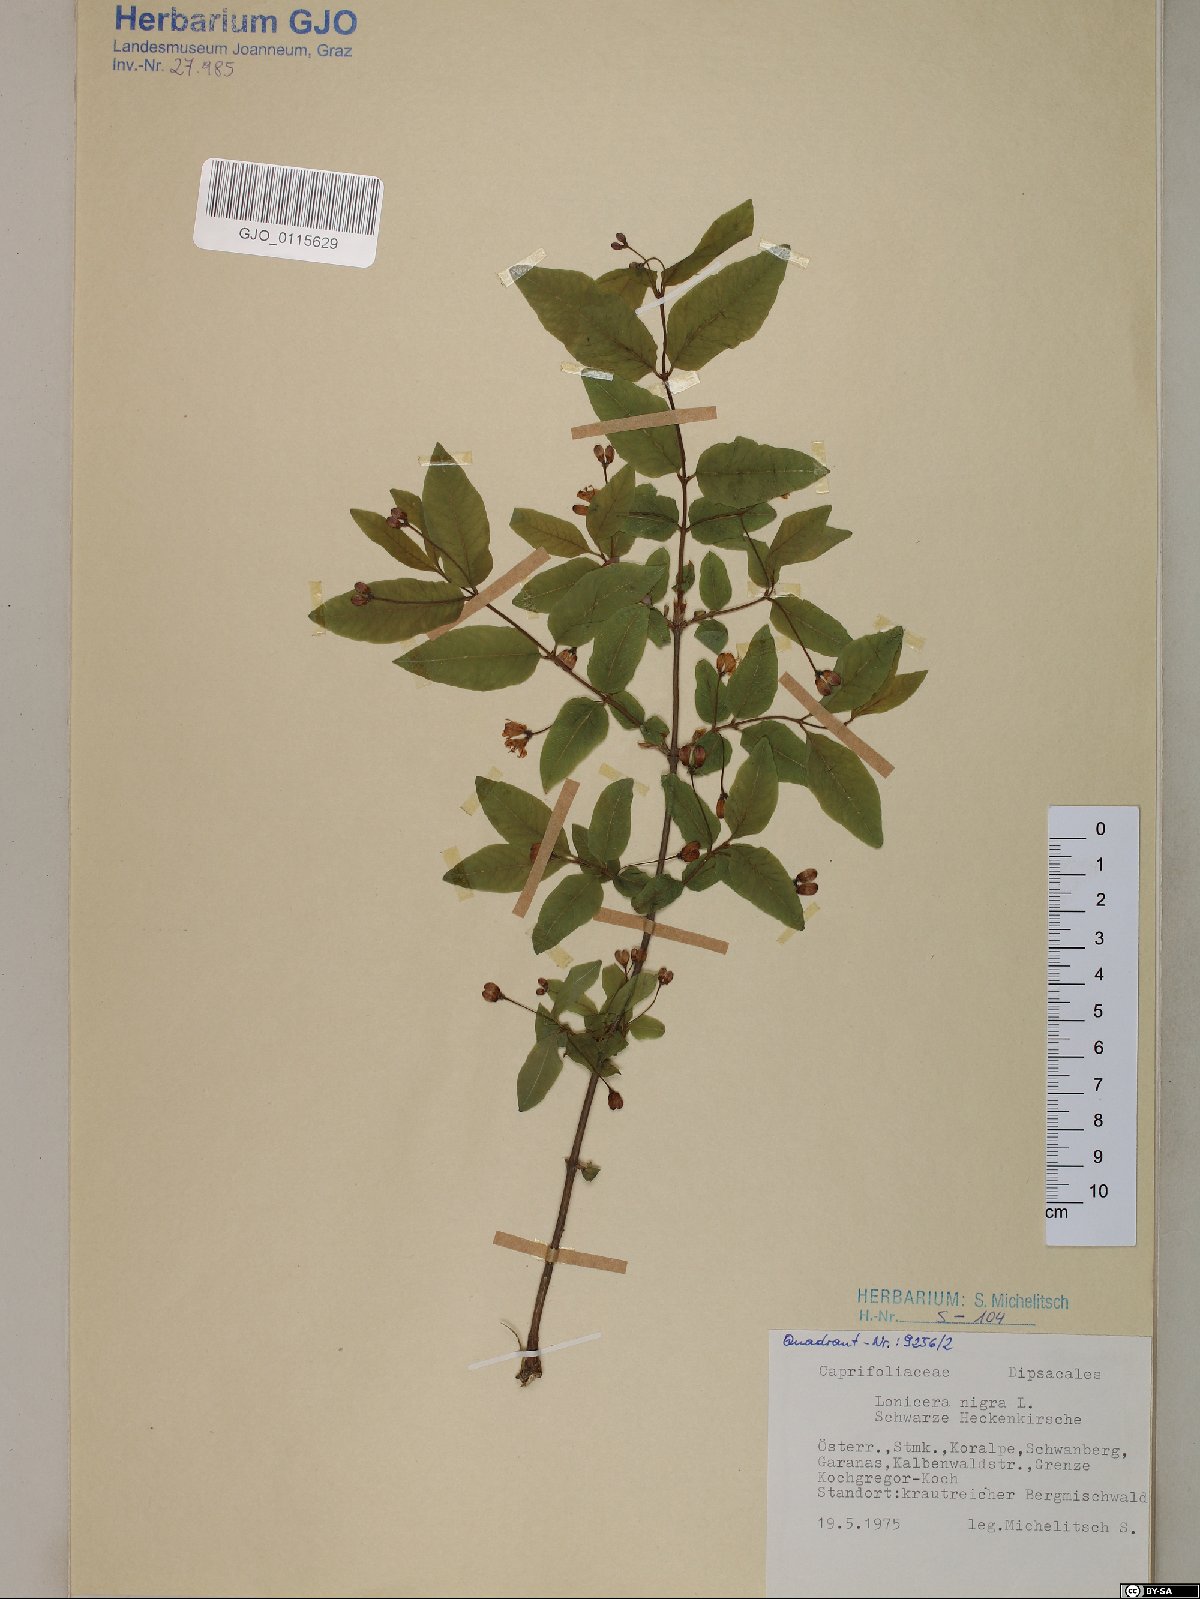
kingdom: Plantae
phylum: Tracheophyta
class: Magnoliopsida
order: Dipsacales
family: Caprifoliaceae
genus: Lonicera
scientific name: Lonicera nigra
